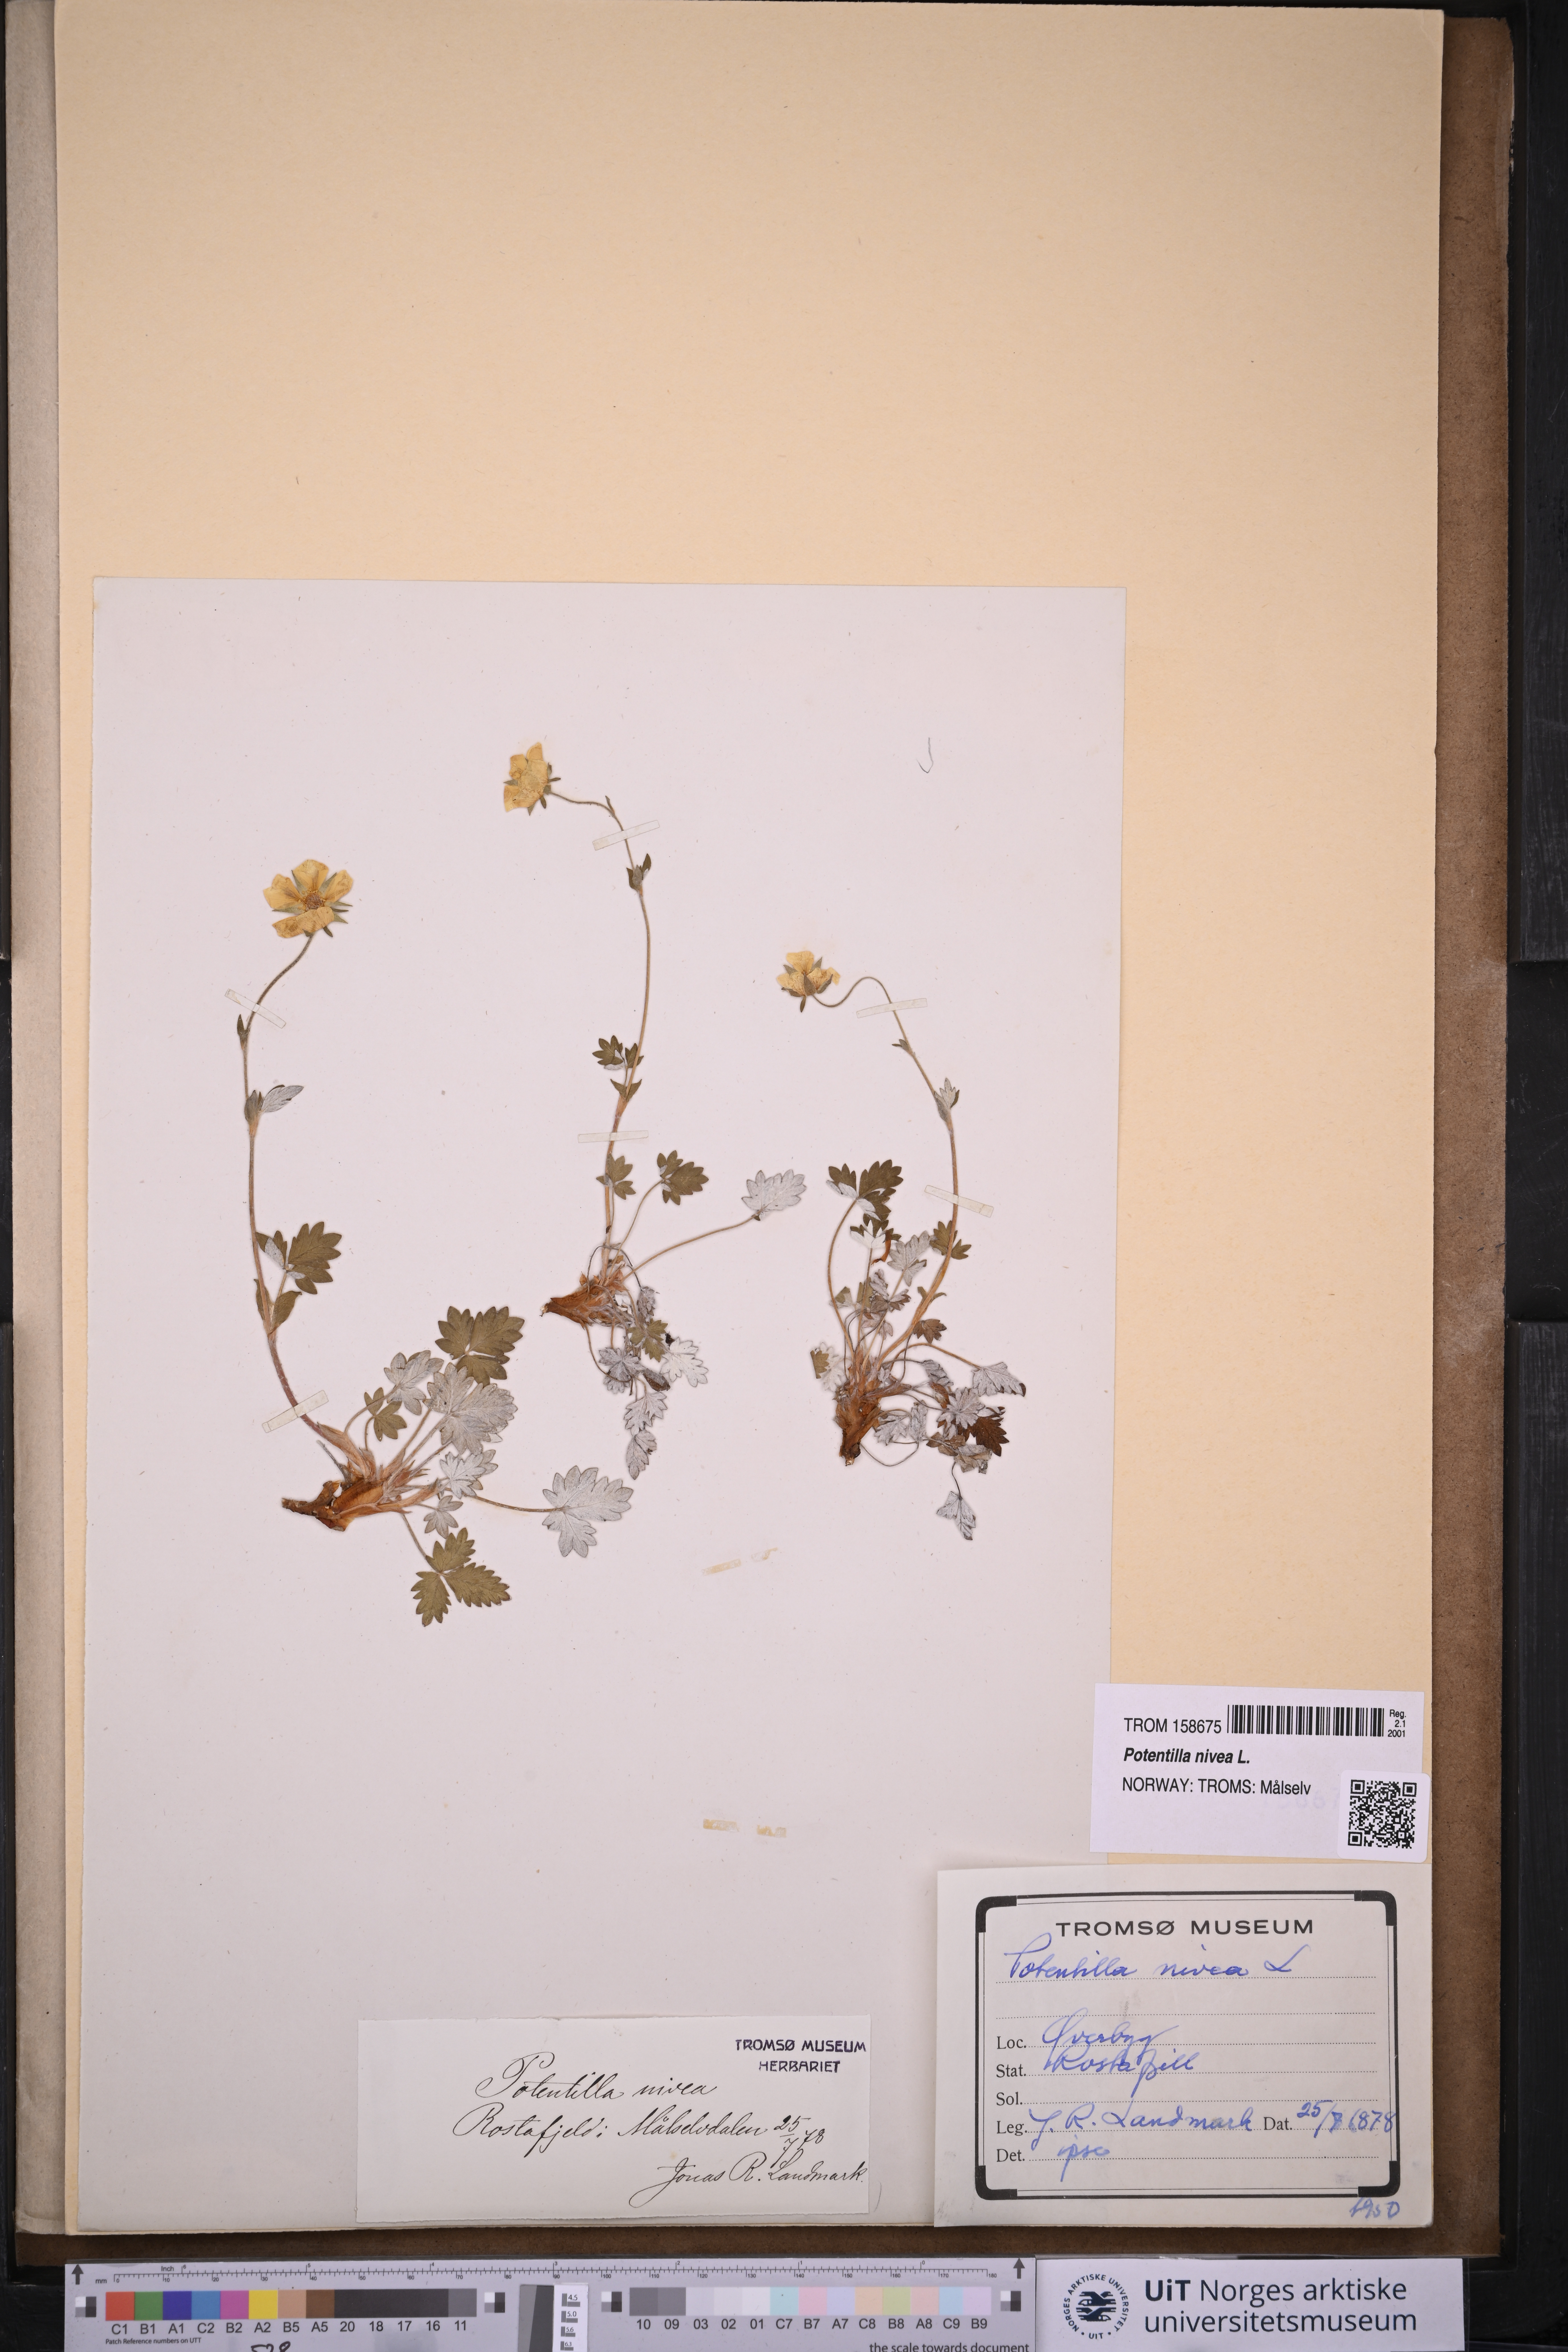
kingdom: Plantae
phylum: Tracheophyta
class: Magnoliopsida
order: Rosales
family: Rosaceae
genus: Potentilla
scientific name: Potentilla arenosa
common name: Bluff cinquefoil
